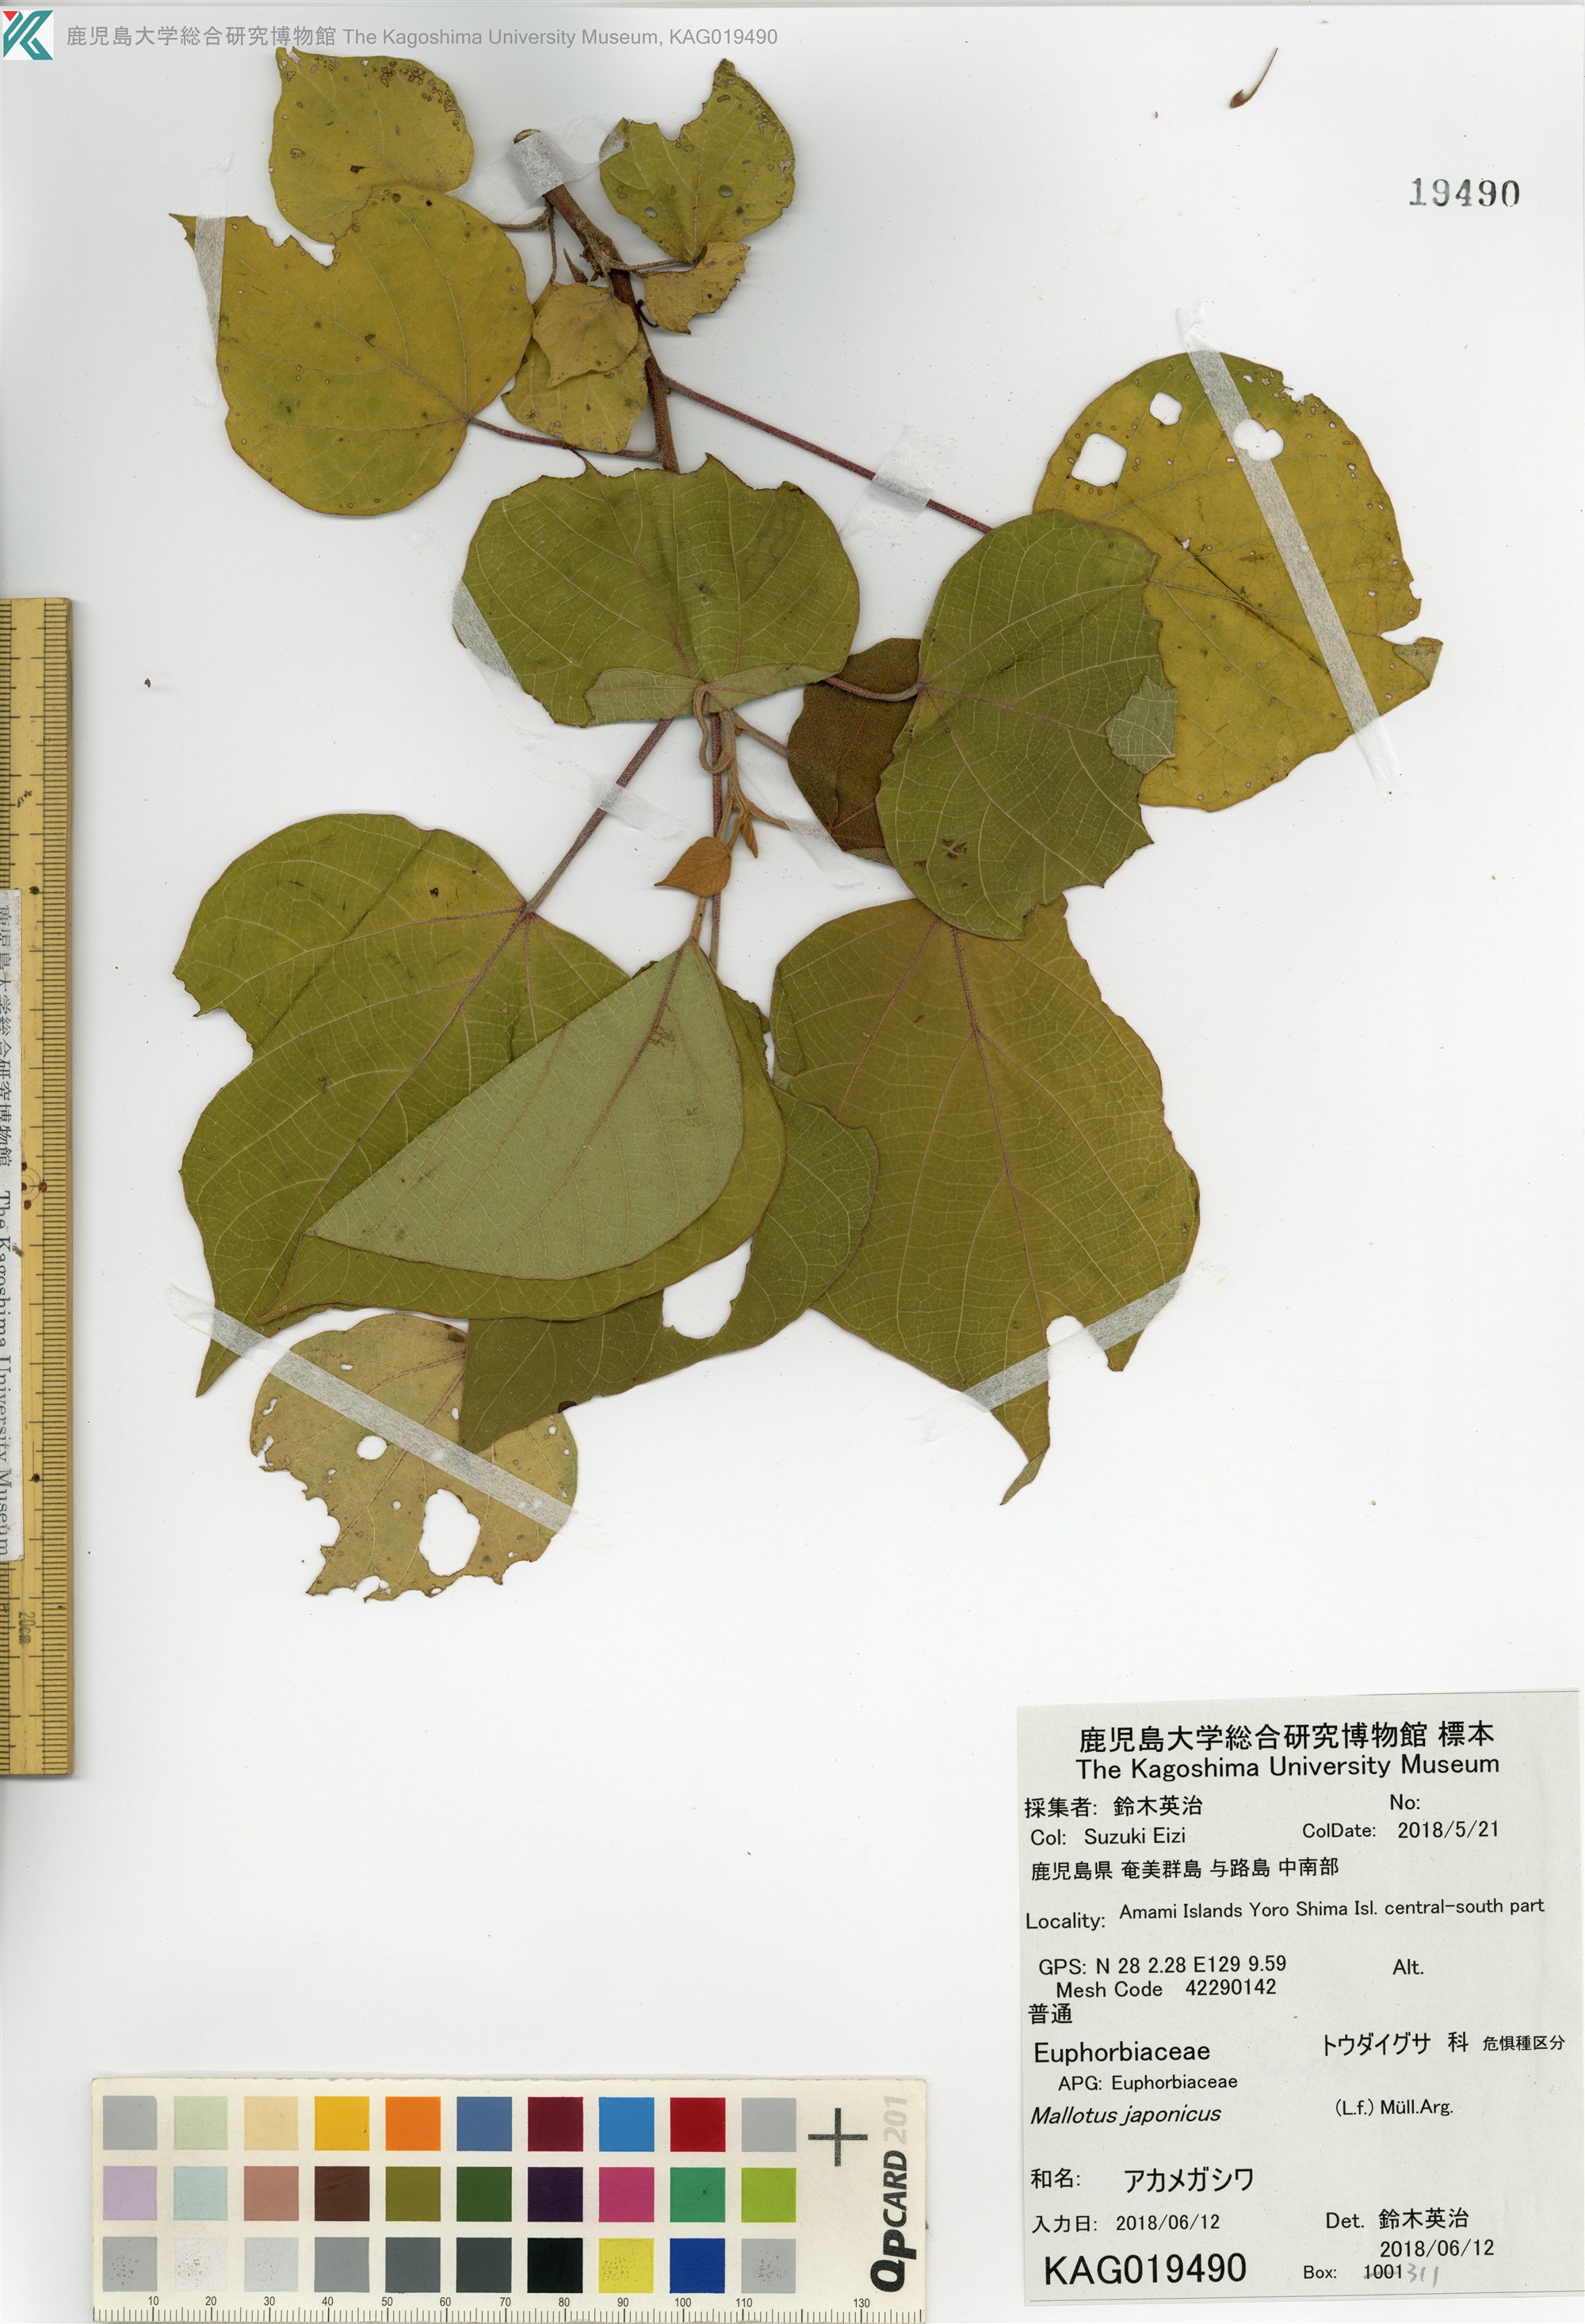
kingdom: Plantae
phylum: Tracheophyta
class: Magnoliopsida
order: Malpighiales
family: Euphorbiaceae
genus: Mallotus
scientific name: Mallotus japonicus
